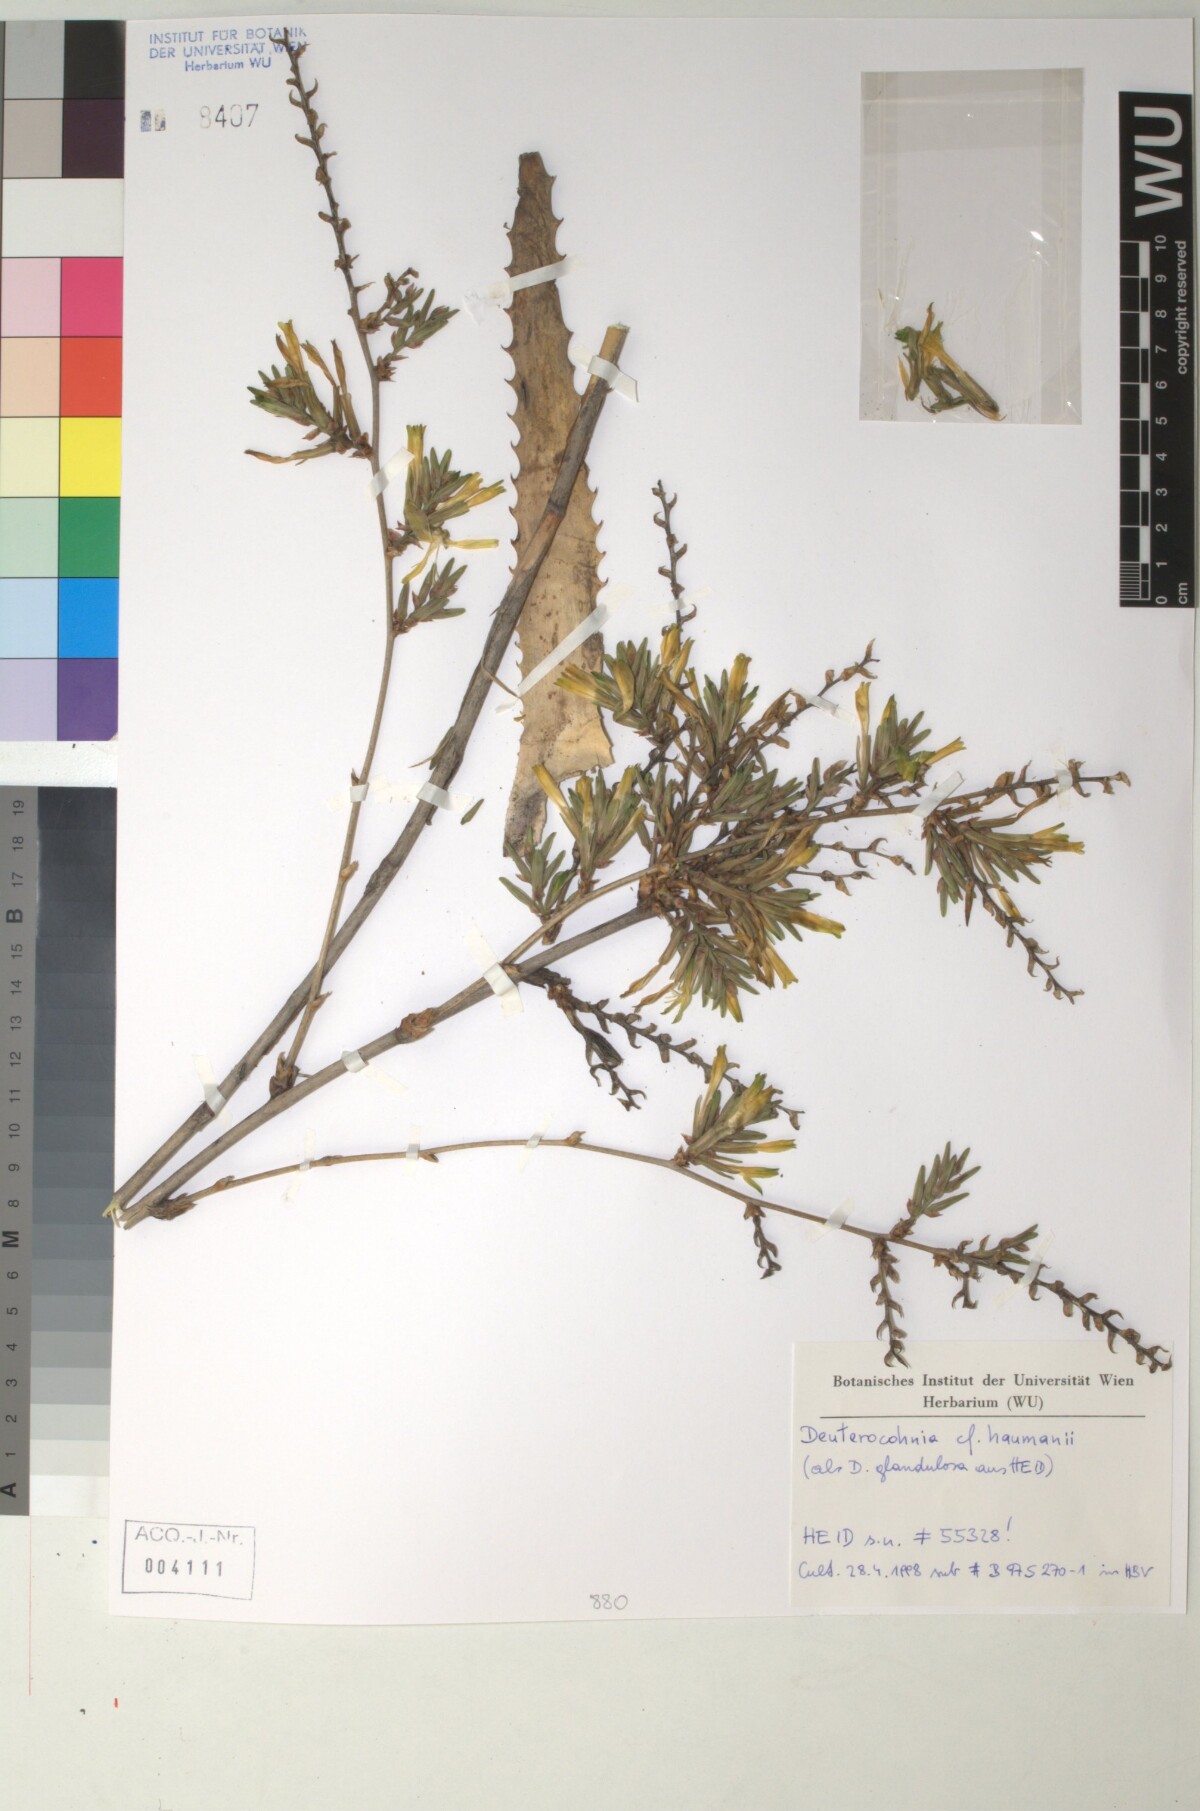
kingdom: Plantae
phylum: Tracheophyta
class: Liliopsida
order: Poales
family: Bromeliaceae
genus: Deuterocohnia
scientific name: Deuterocohnia haumanii
